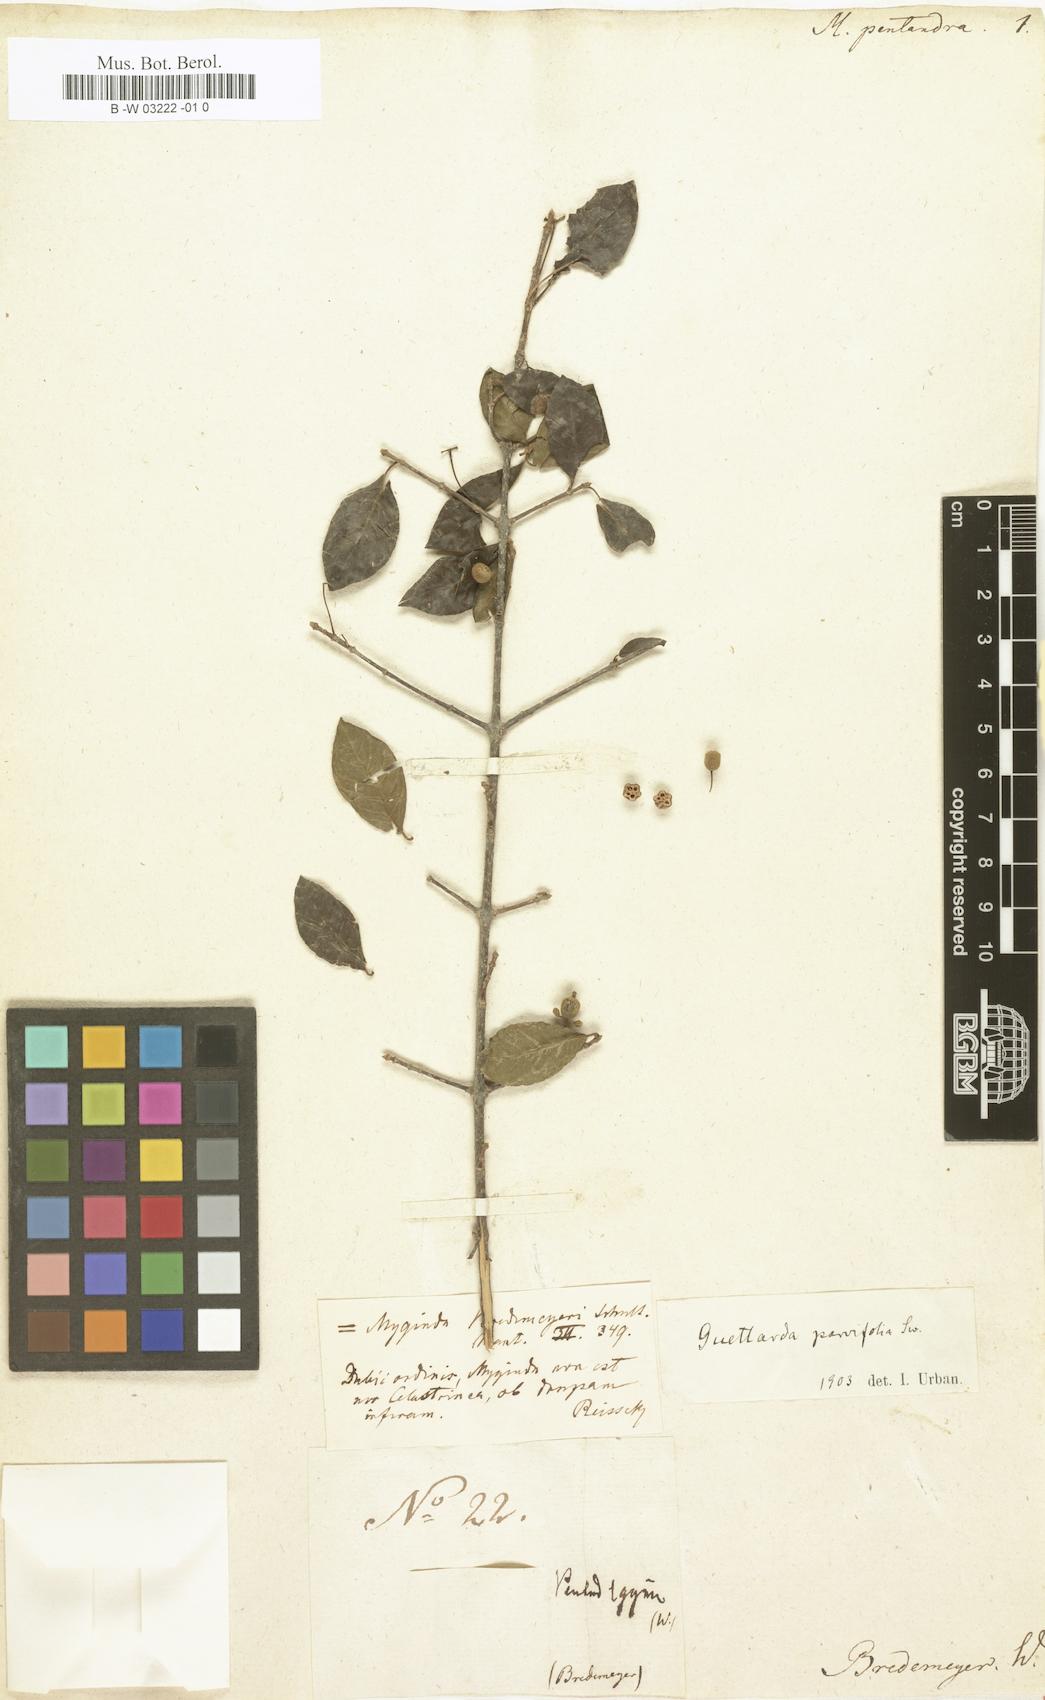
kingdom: Plantae
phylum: Tracheophyta
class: Magnoliopsida
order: Gentianales
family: Rubiaceae
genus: Guettarda
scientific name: Guettarda odorata
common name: Wild cherry
